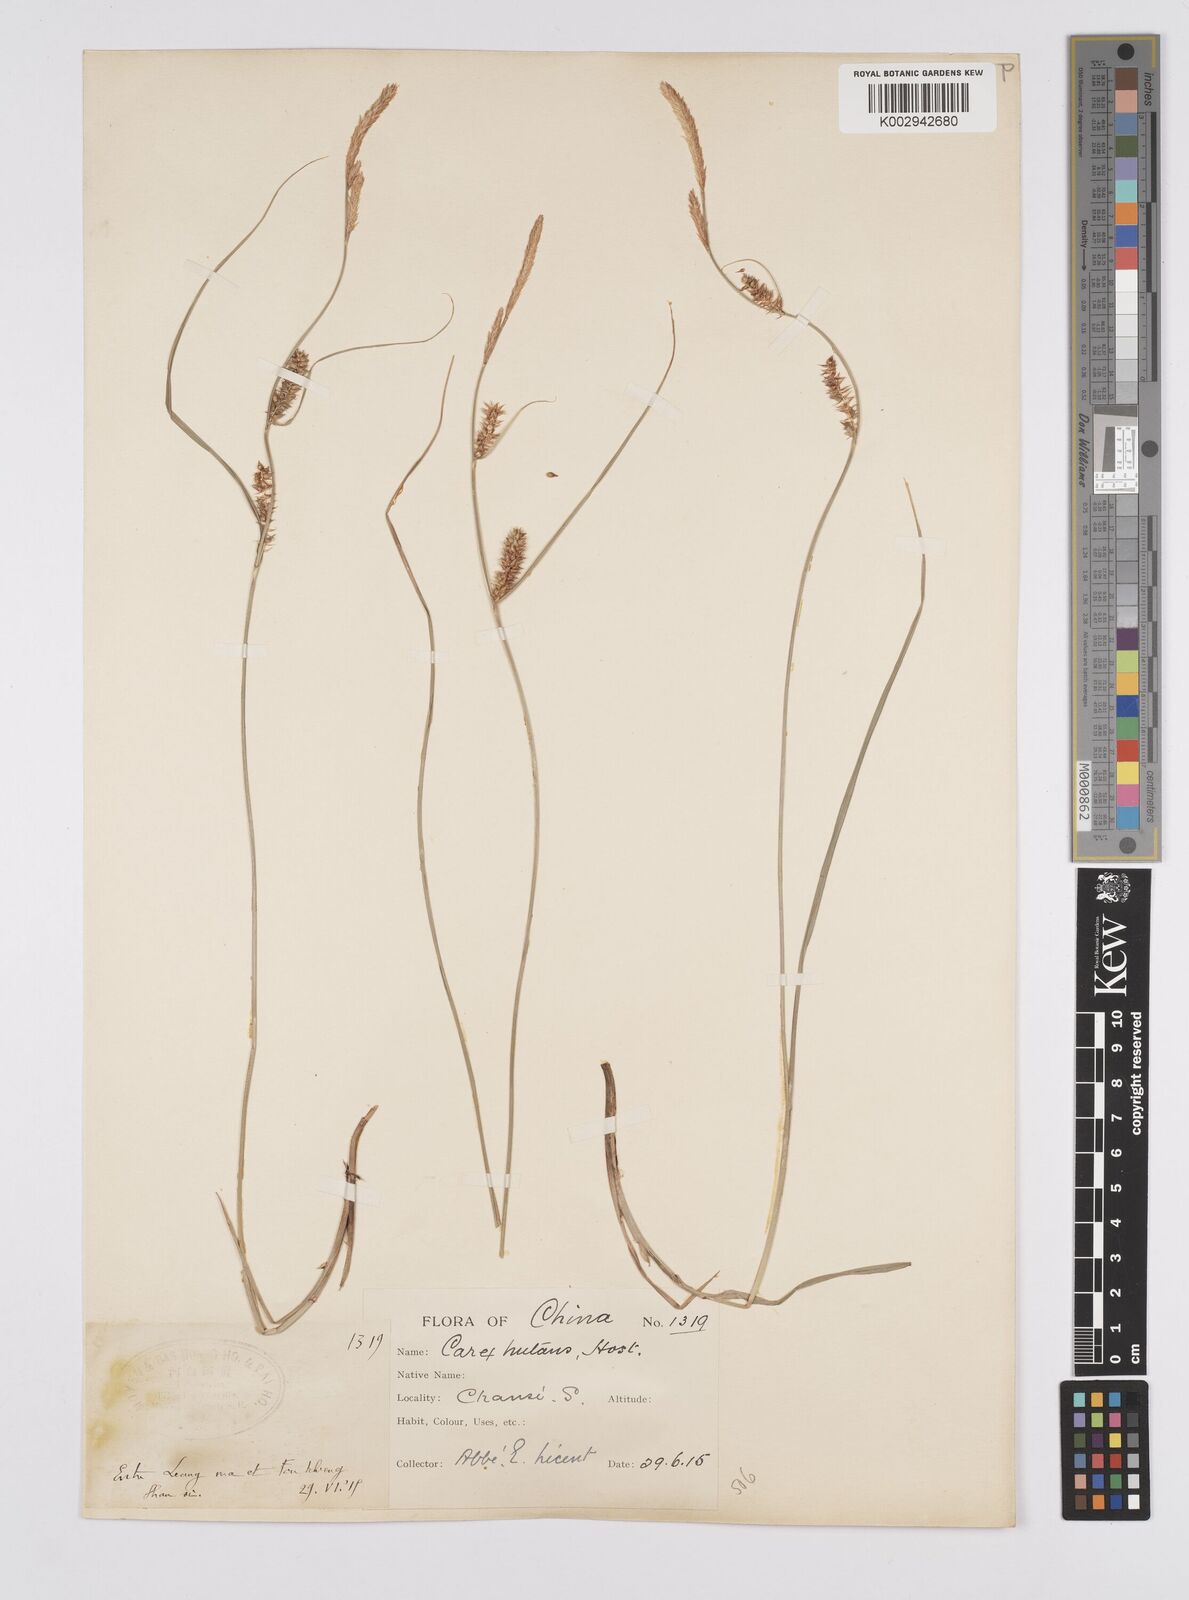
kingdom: Plantae
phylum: Tracheophyta
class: Liliopsida
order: Poales
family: Cyperaceae
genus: Carex
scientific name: Carex melanostachya
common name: Black-spiked sedge
